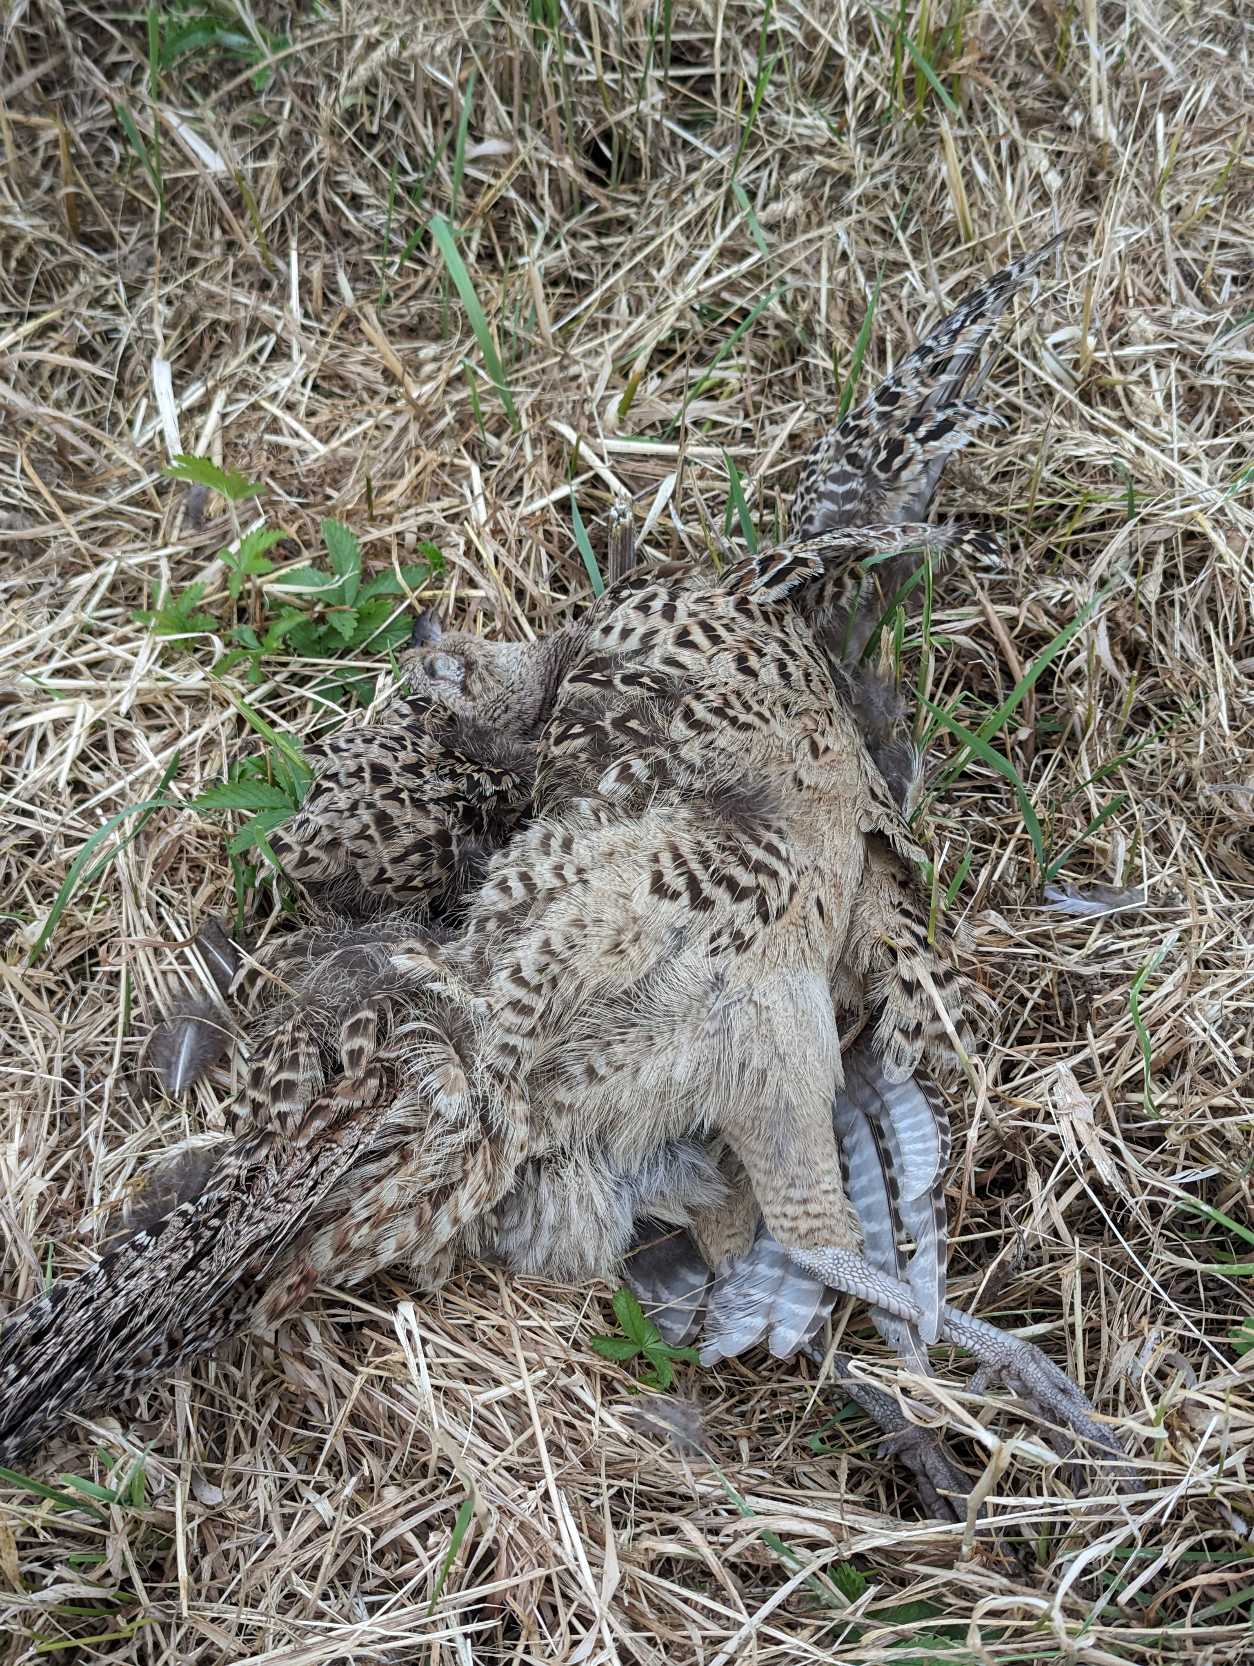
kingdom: Animalia
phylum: Chordata
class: Aves
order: Galliformes
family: Phasianidae
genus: Phasianus
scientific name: Phasianus colchicus
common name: Fasan
